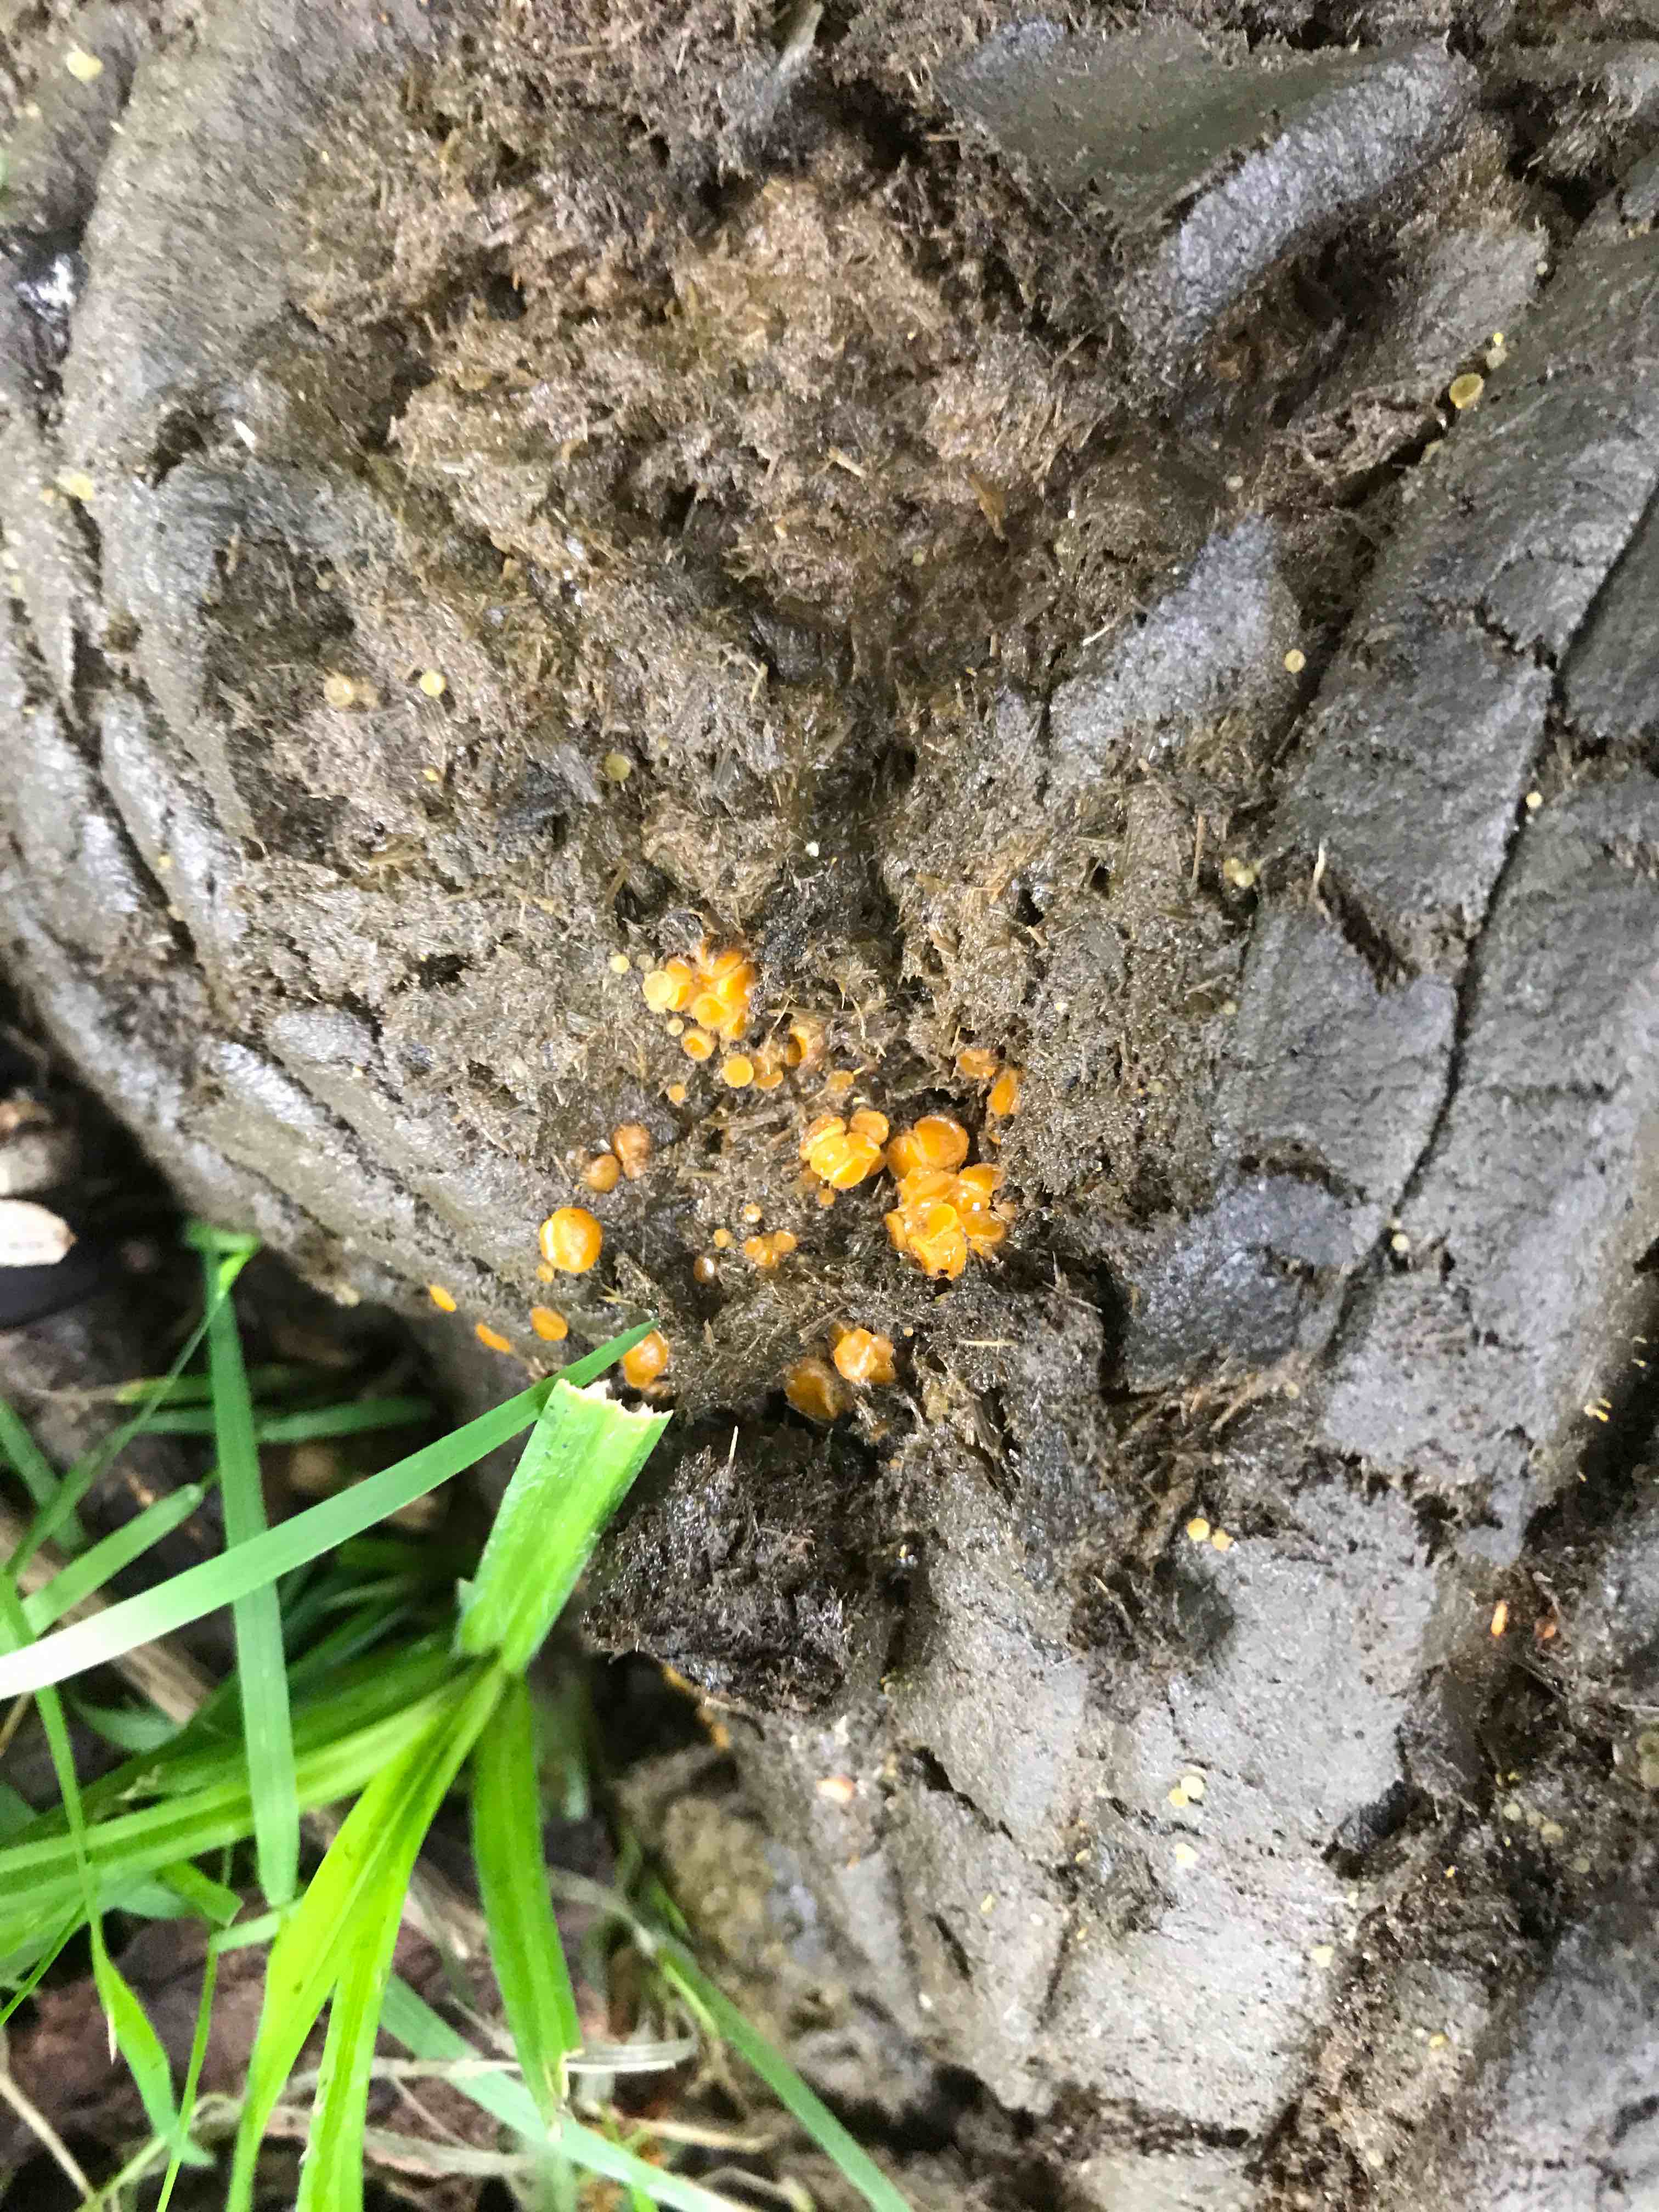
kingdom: Fungi
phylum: Ascomycota
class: Pezizomycetes
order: Pezizales
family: Pyronemataceae
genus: Cheilymenia
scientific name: Cheilymenia granulata
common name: møgbæger
